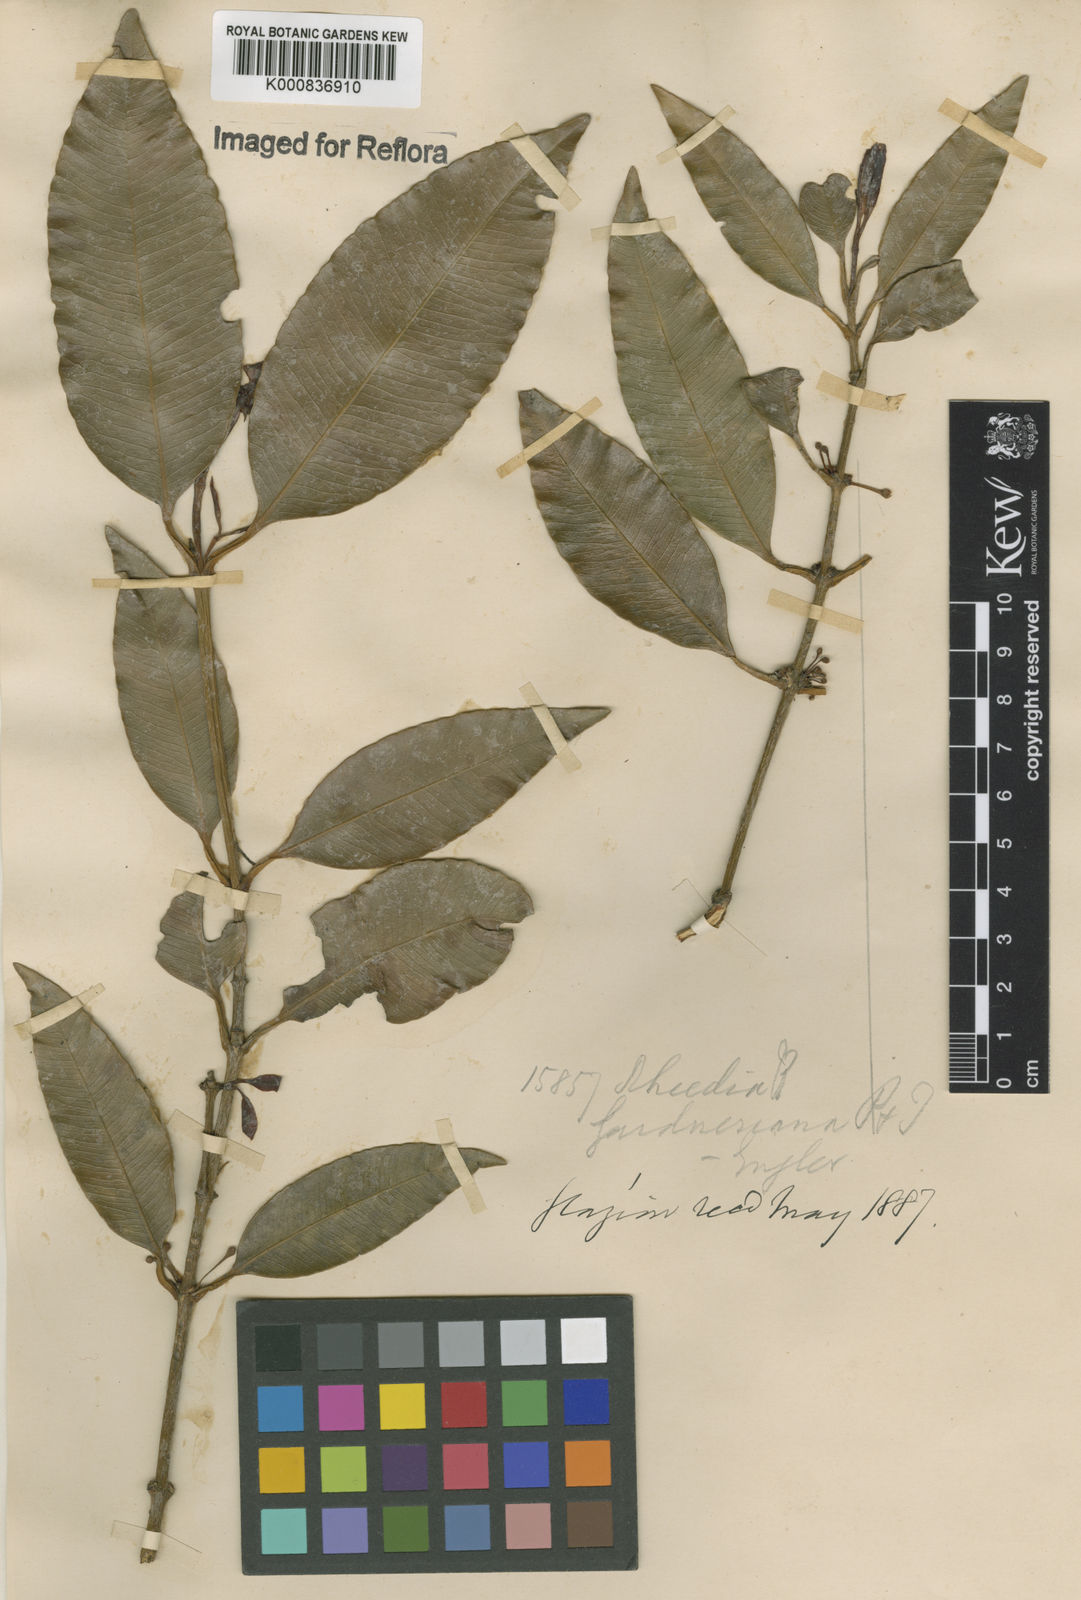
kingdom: Plantae
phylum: Tracheophyta
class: Magnoliopsida
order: Malpighiales
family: Clusiaceae
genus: Garcinia
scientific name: Garcinia gardneriana
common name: Achacha
